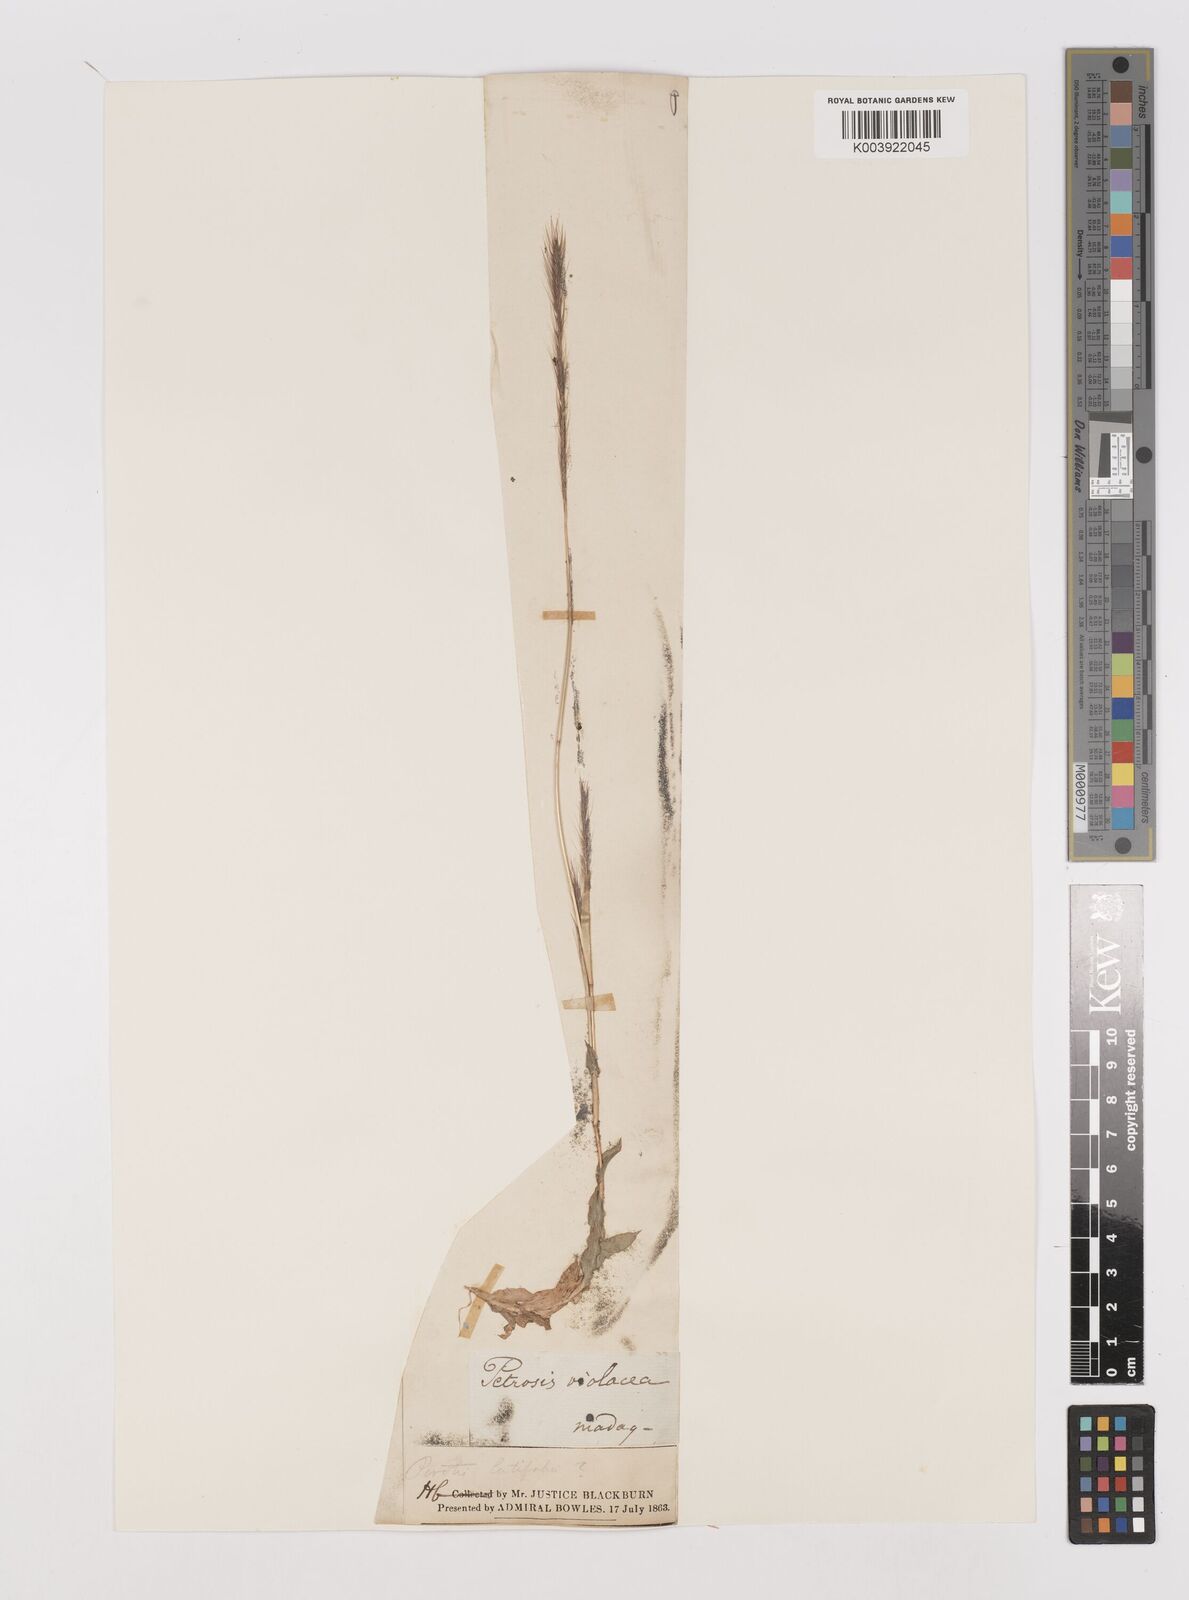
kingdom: Plantae
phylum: Tracheophyta
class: Liliopsida
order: Poales
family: Poaceae
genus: Perotis
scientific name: Perotis patens
